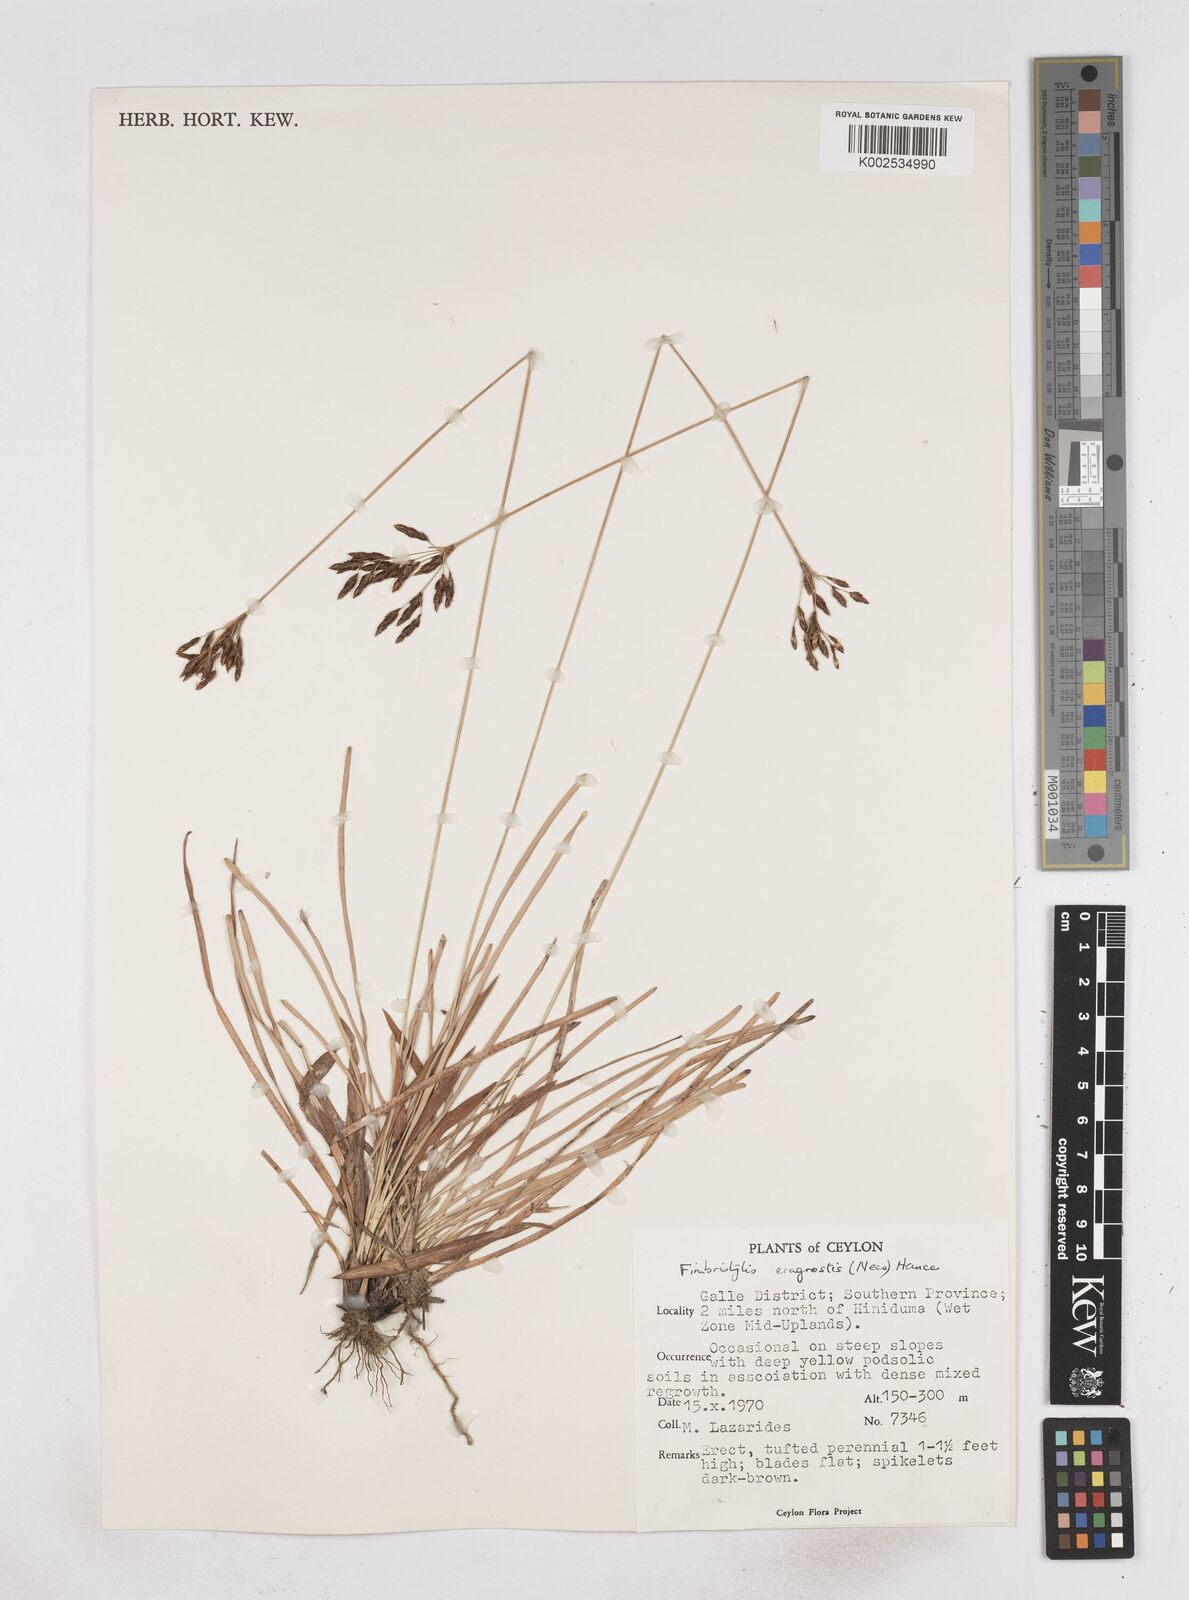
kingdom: Plantae
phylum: Tracheophyta
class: Liliopsida
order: Poales
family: Cyperaceae
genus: Fimbristylis
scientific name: Fimbristylis nigrobrunnea
